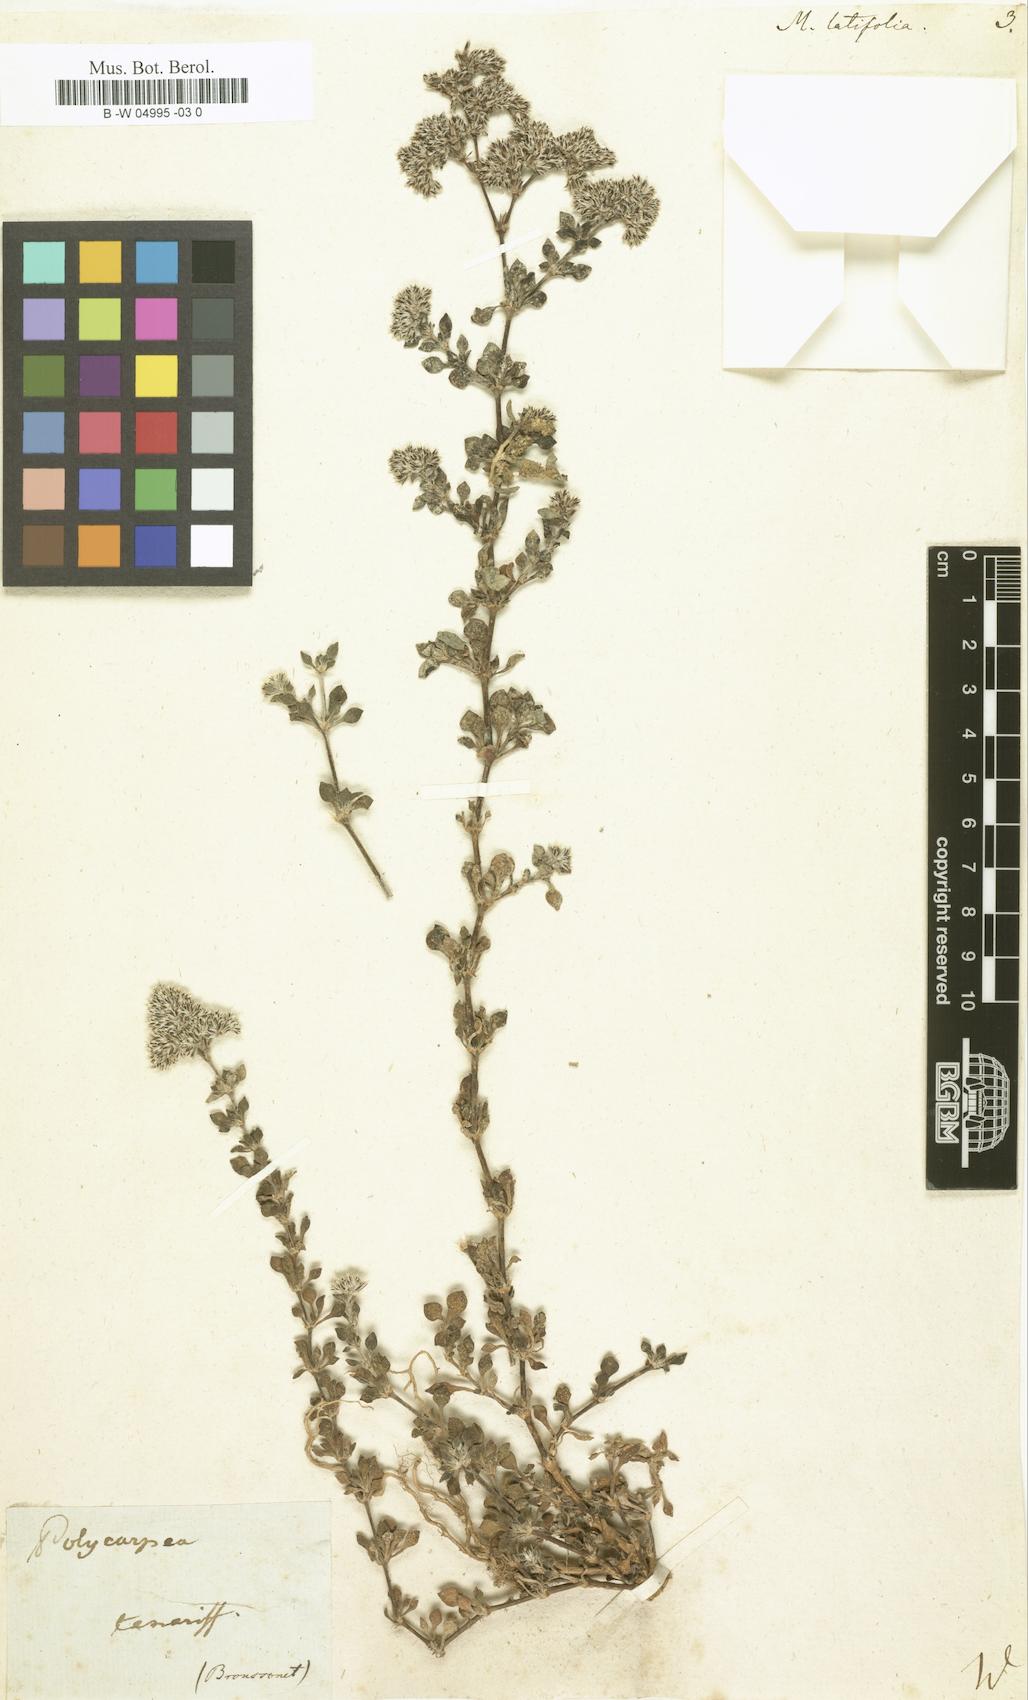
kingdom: Plantae
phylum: Tracheophyta
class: Magnoliopsida
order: Caryophyllales
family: Caryophyllaceae
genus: Polycarpaea
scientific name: Polycarpaea latifolia
